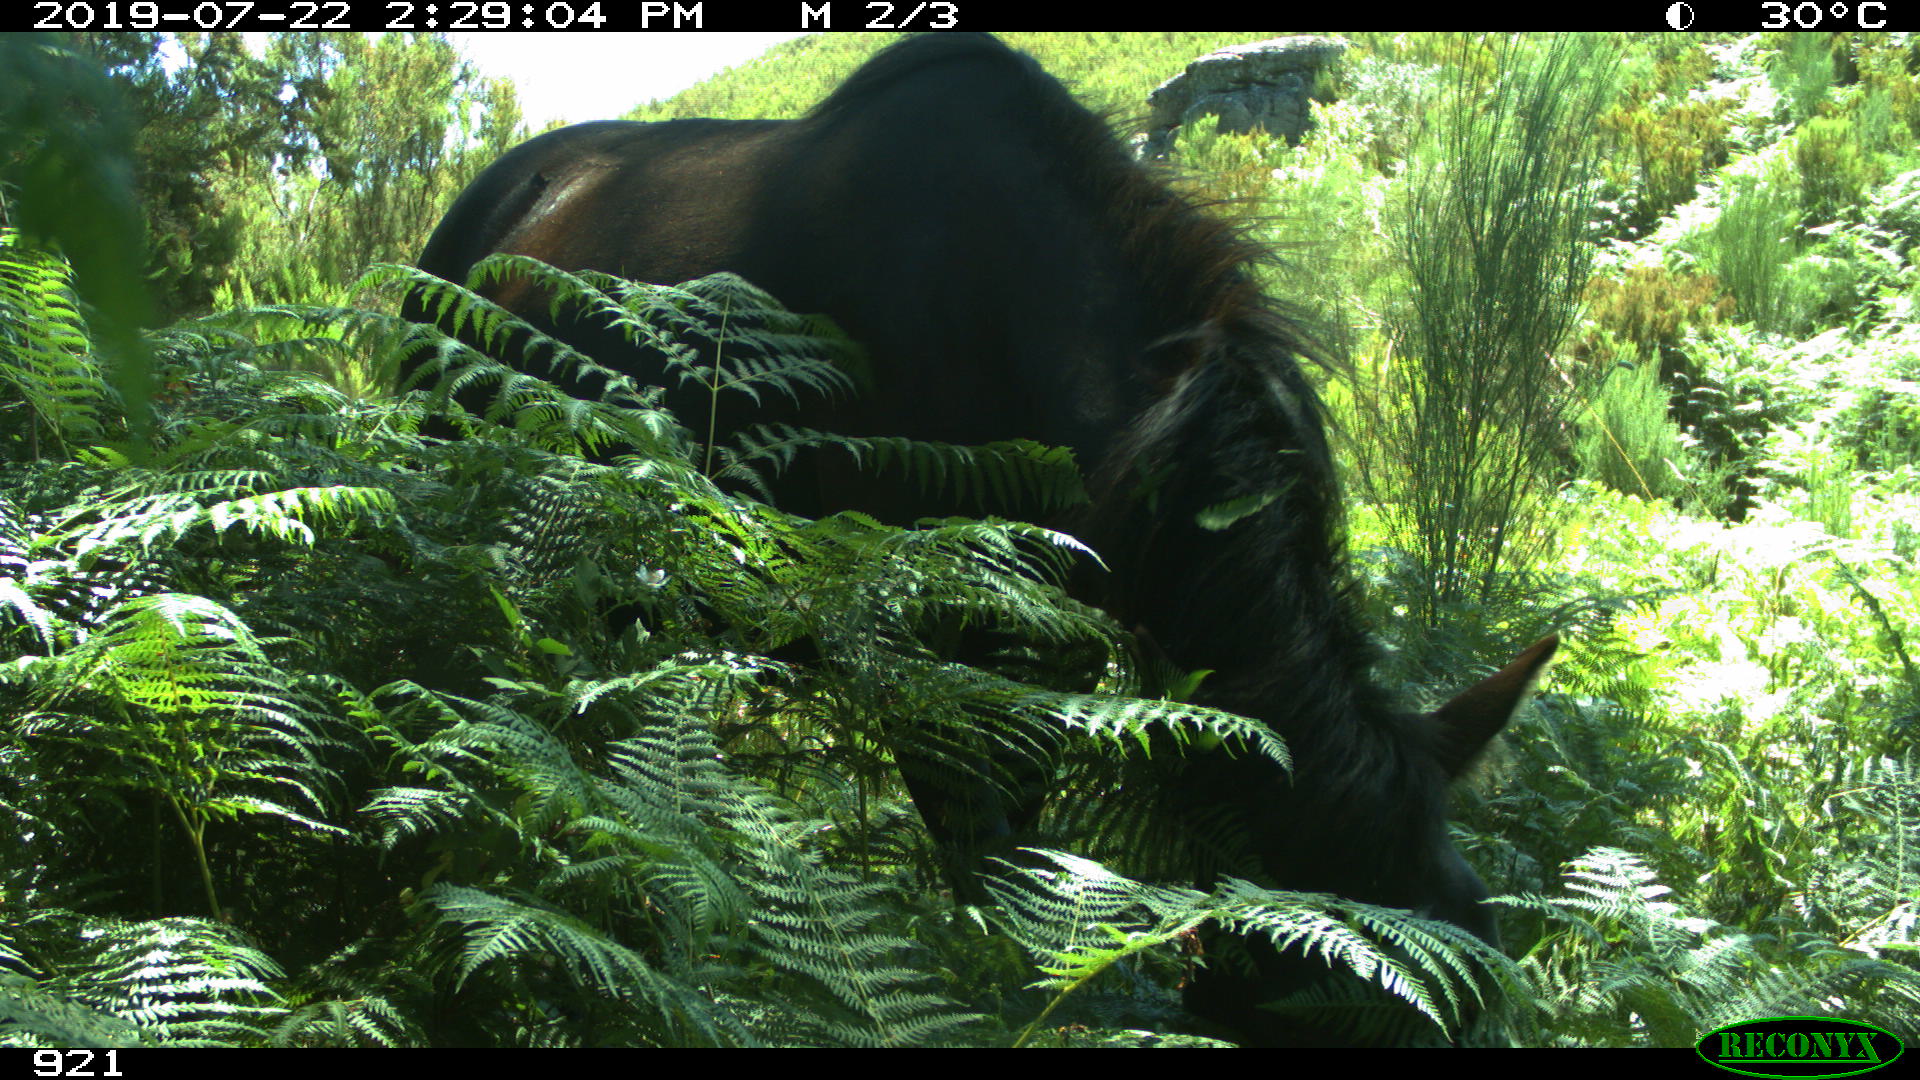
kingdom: Animalia
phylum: Chordata
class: Mammalia
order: Perissodactyla
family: Equidae
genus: Equus
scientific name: Equus caballus
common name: Horse
